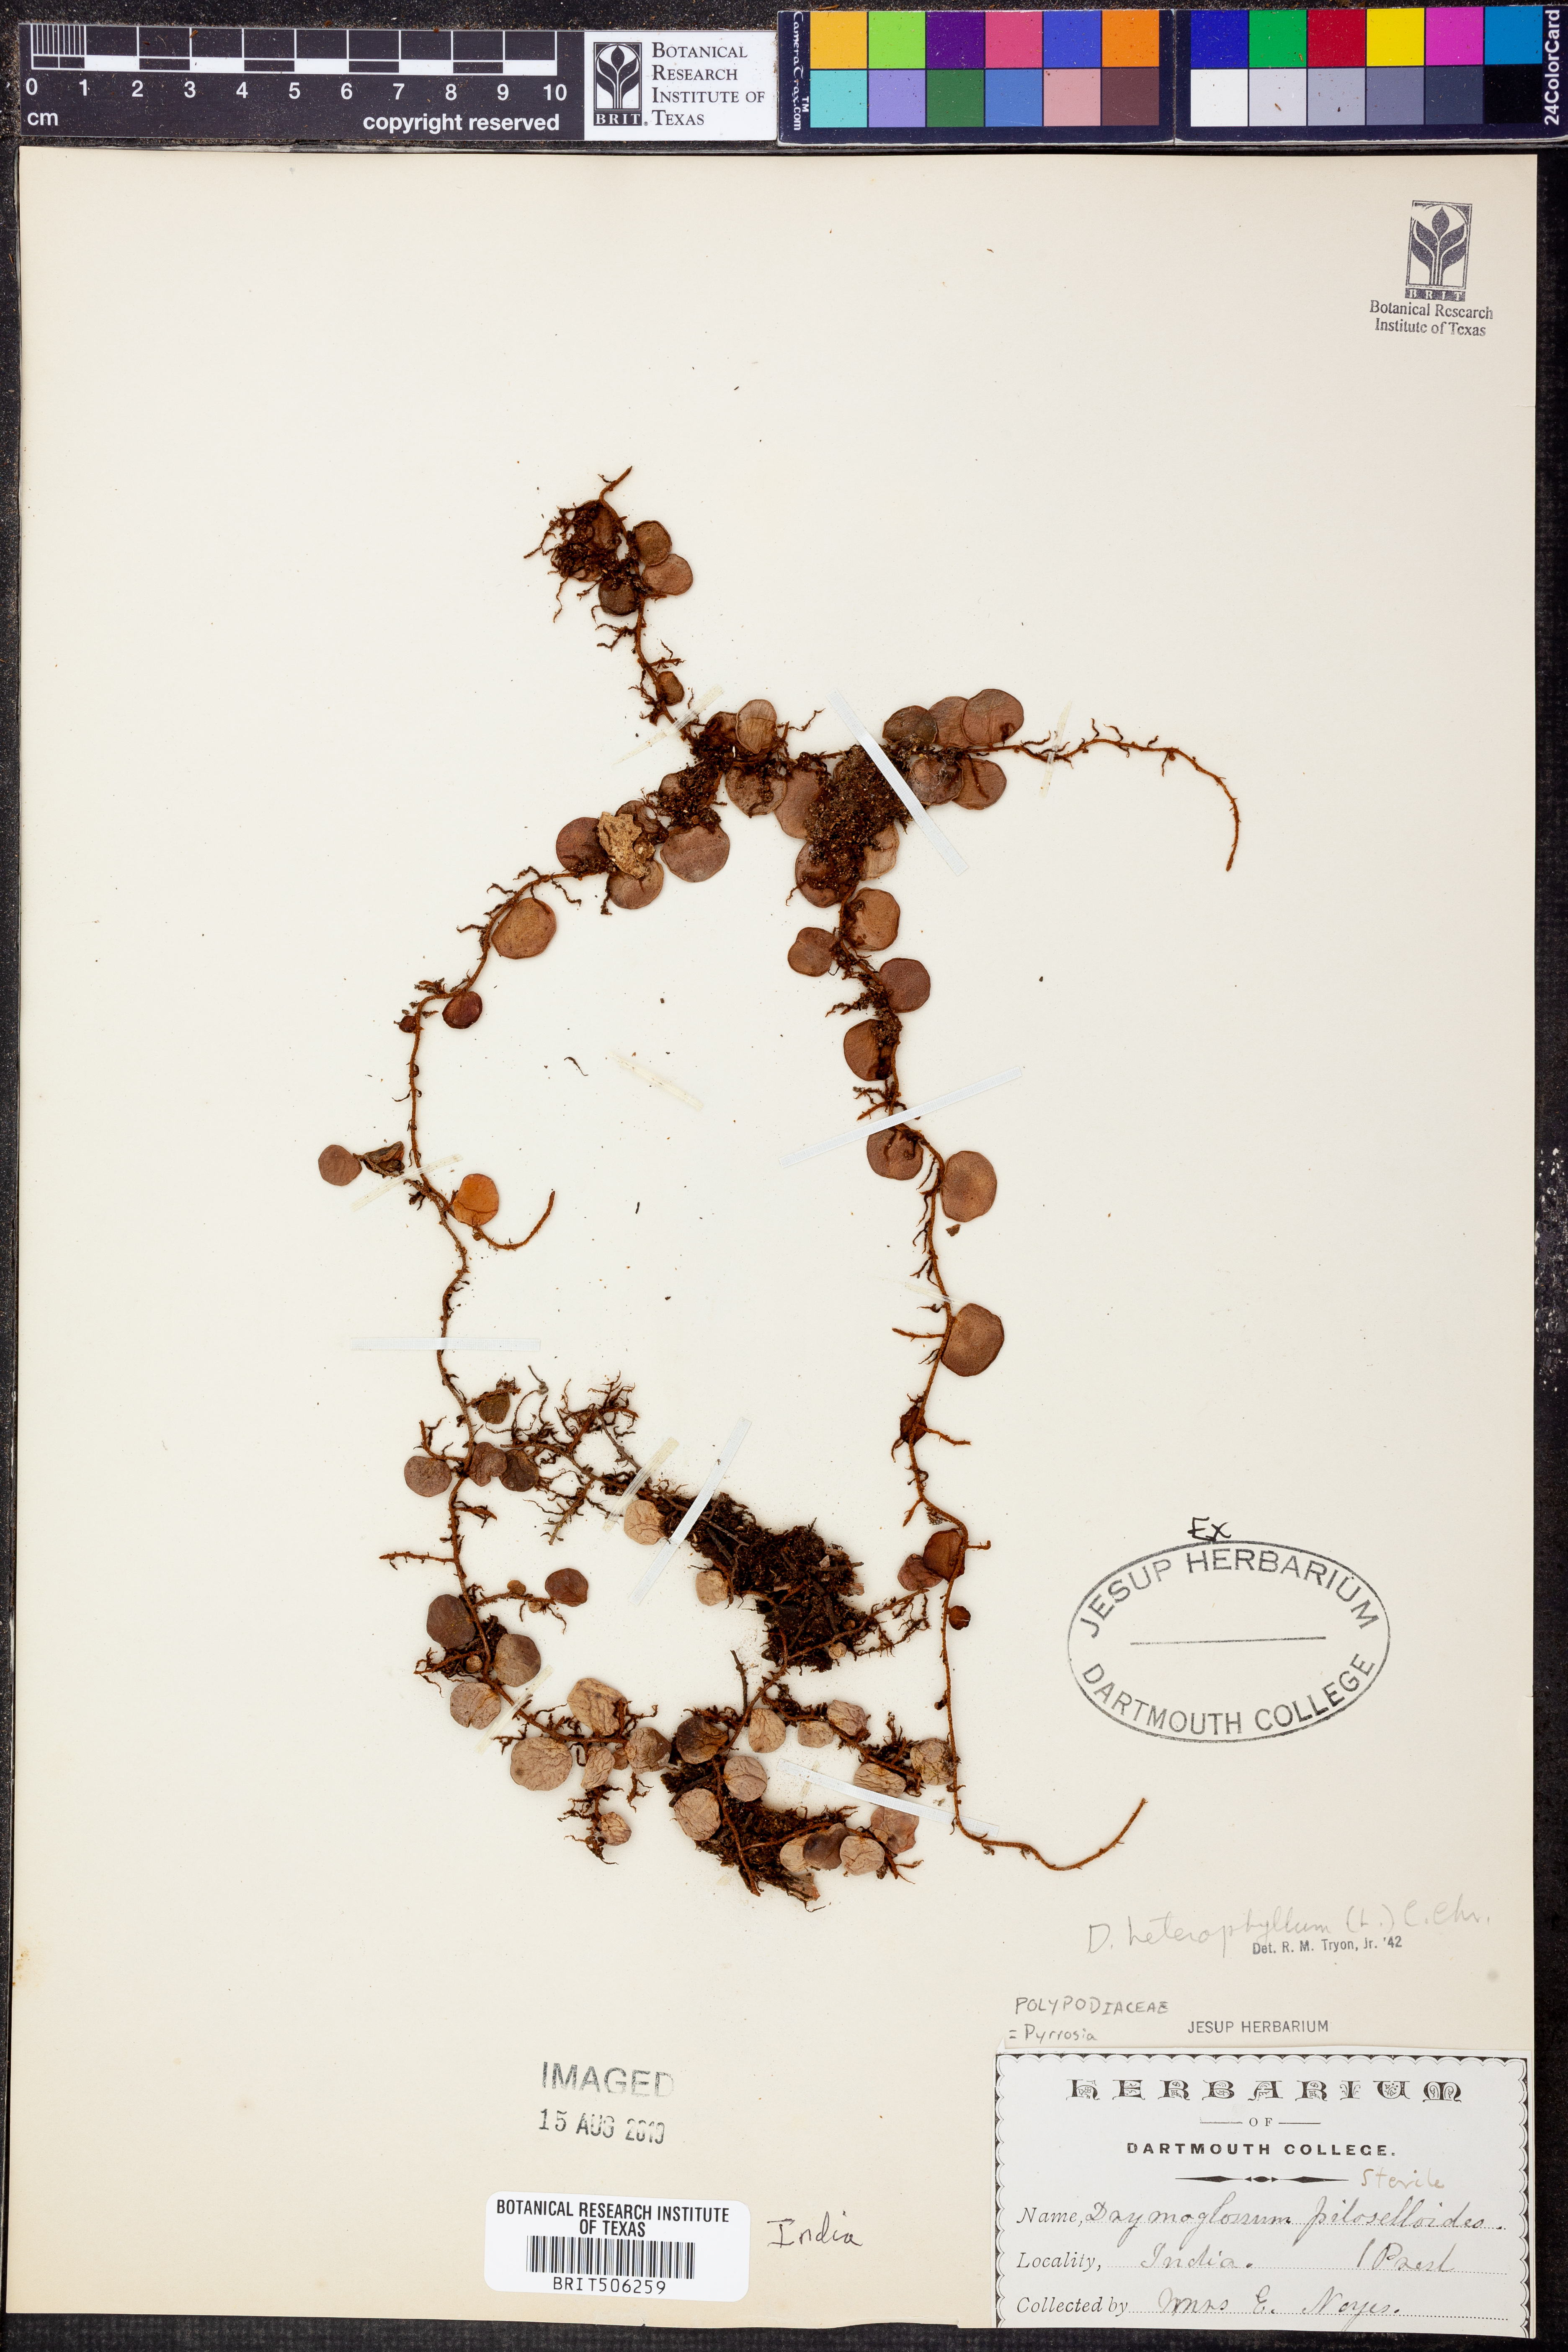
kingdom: Plantae
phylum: Tracheophyta
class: Polypodiopsida
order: Polypodiales
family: Polypodiaceae
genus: Pyrrosia
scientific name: Pyrrosia heterophylla
